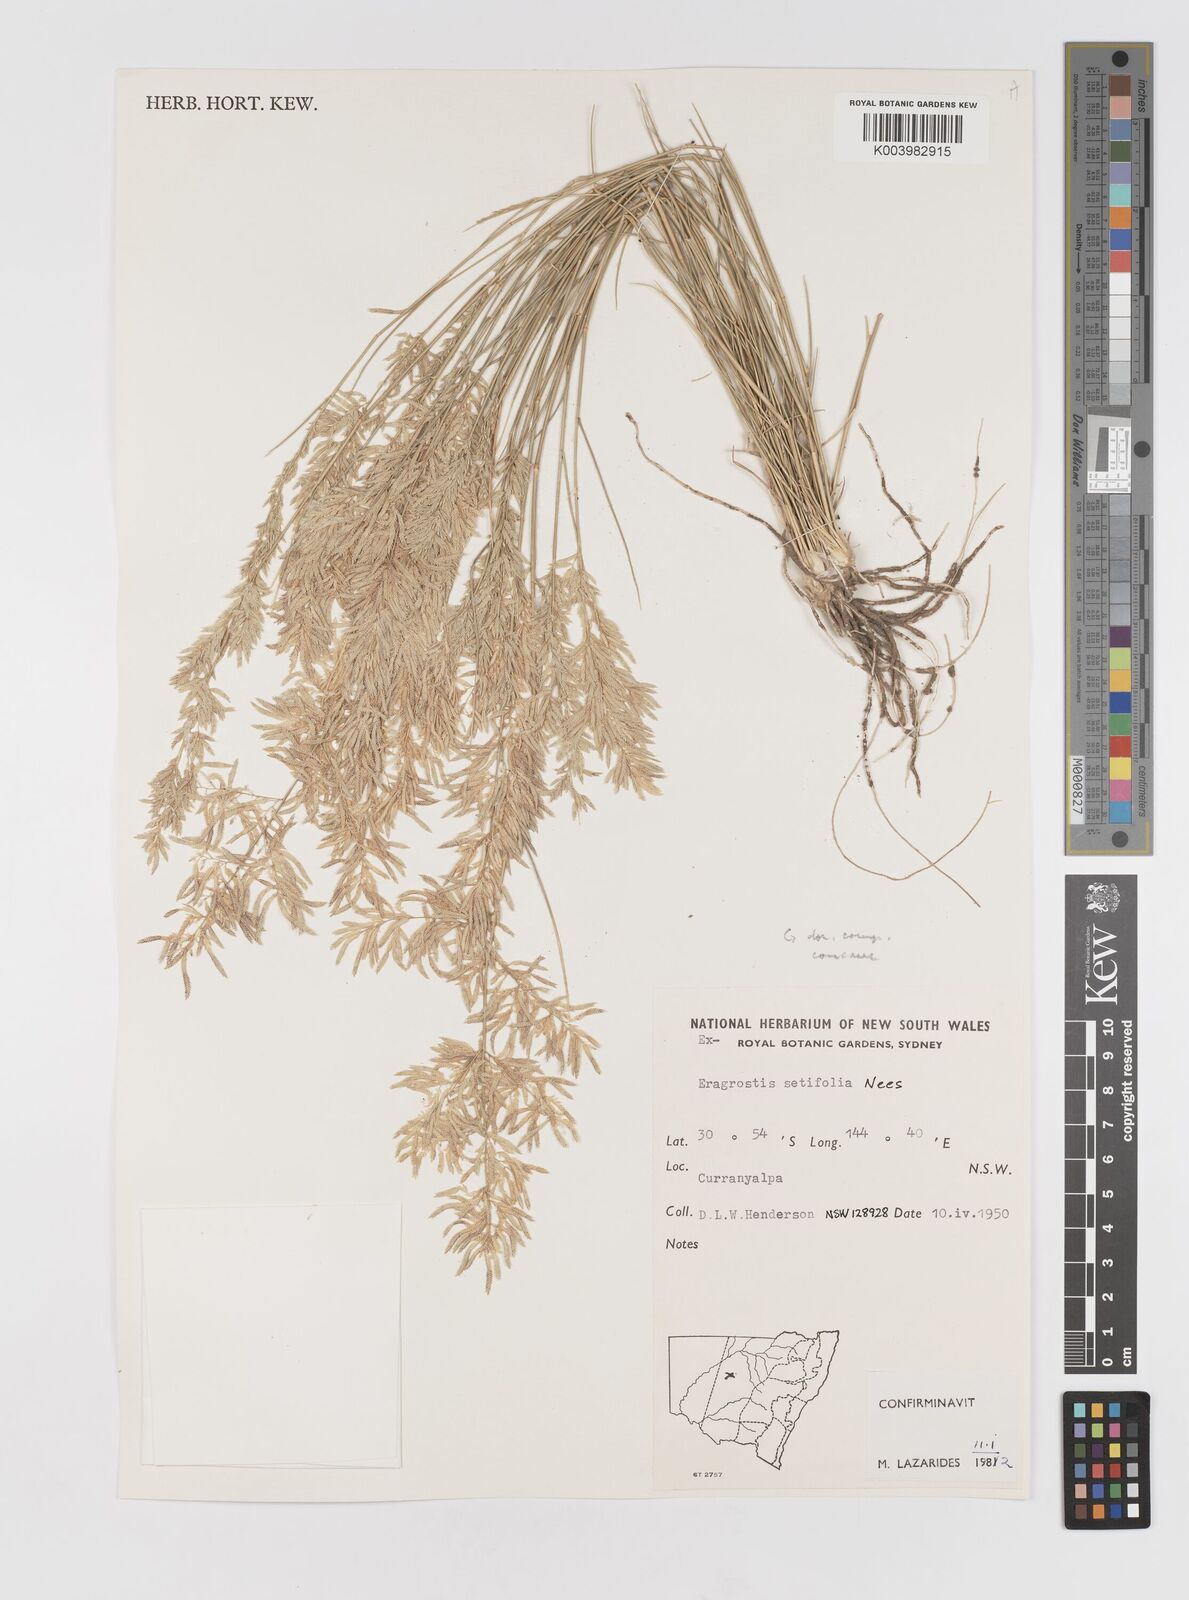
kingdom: Plantae
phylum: Tracheophyta
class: Liliopsida
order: Poales
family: Poaceae
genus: Eragrostis
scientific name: Eragrostis setifolia
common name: Bristleleaf lovegrass
